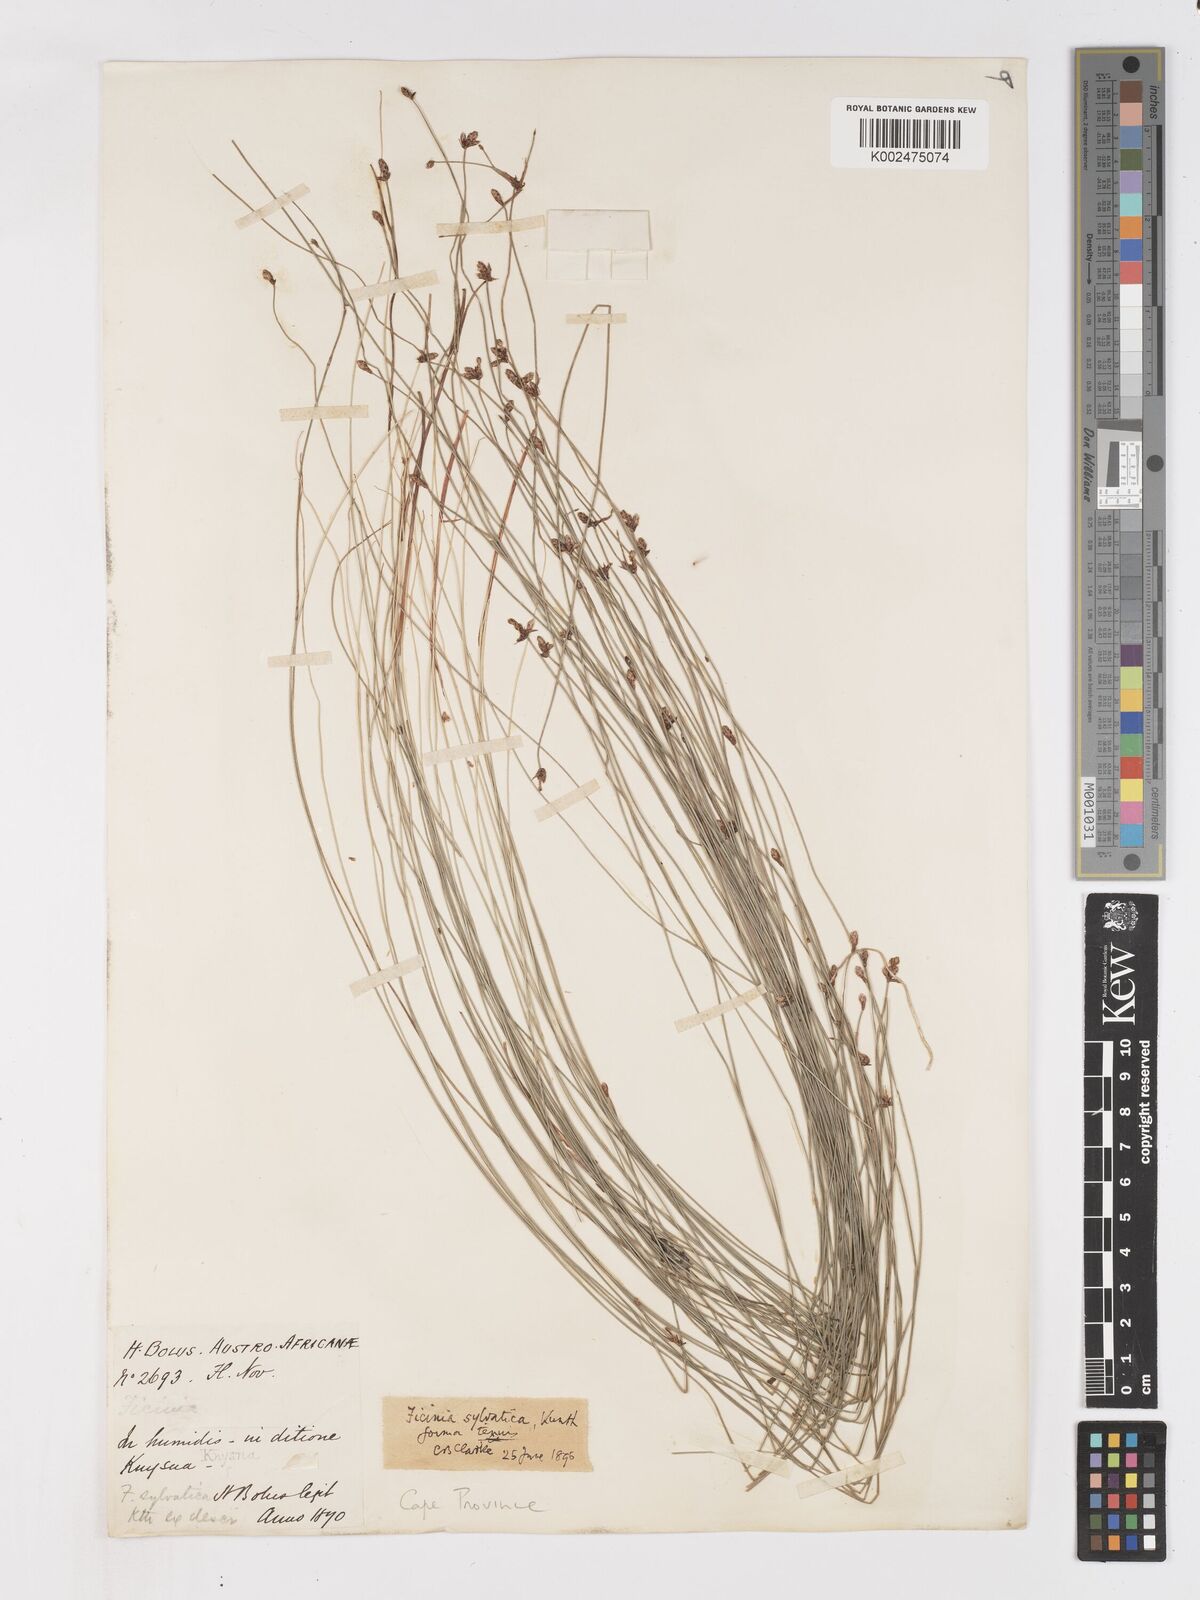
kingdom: Plantae
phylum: Tracheophyta
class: Liliopsida
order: Poales
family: Cyperaceae
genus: Ficinia
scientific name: Ficinia sylvatica
